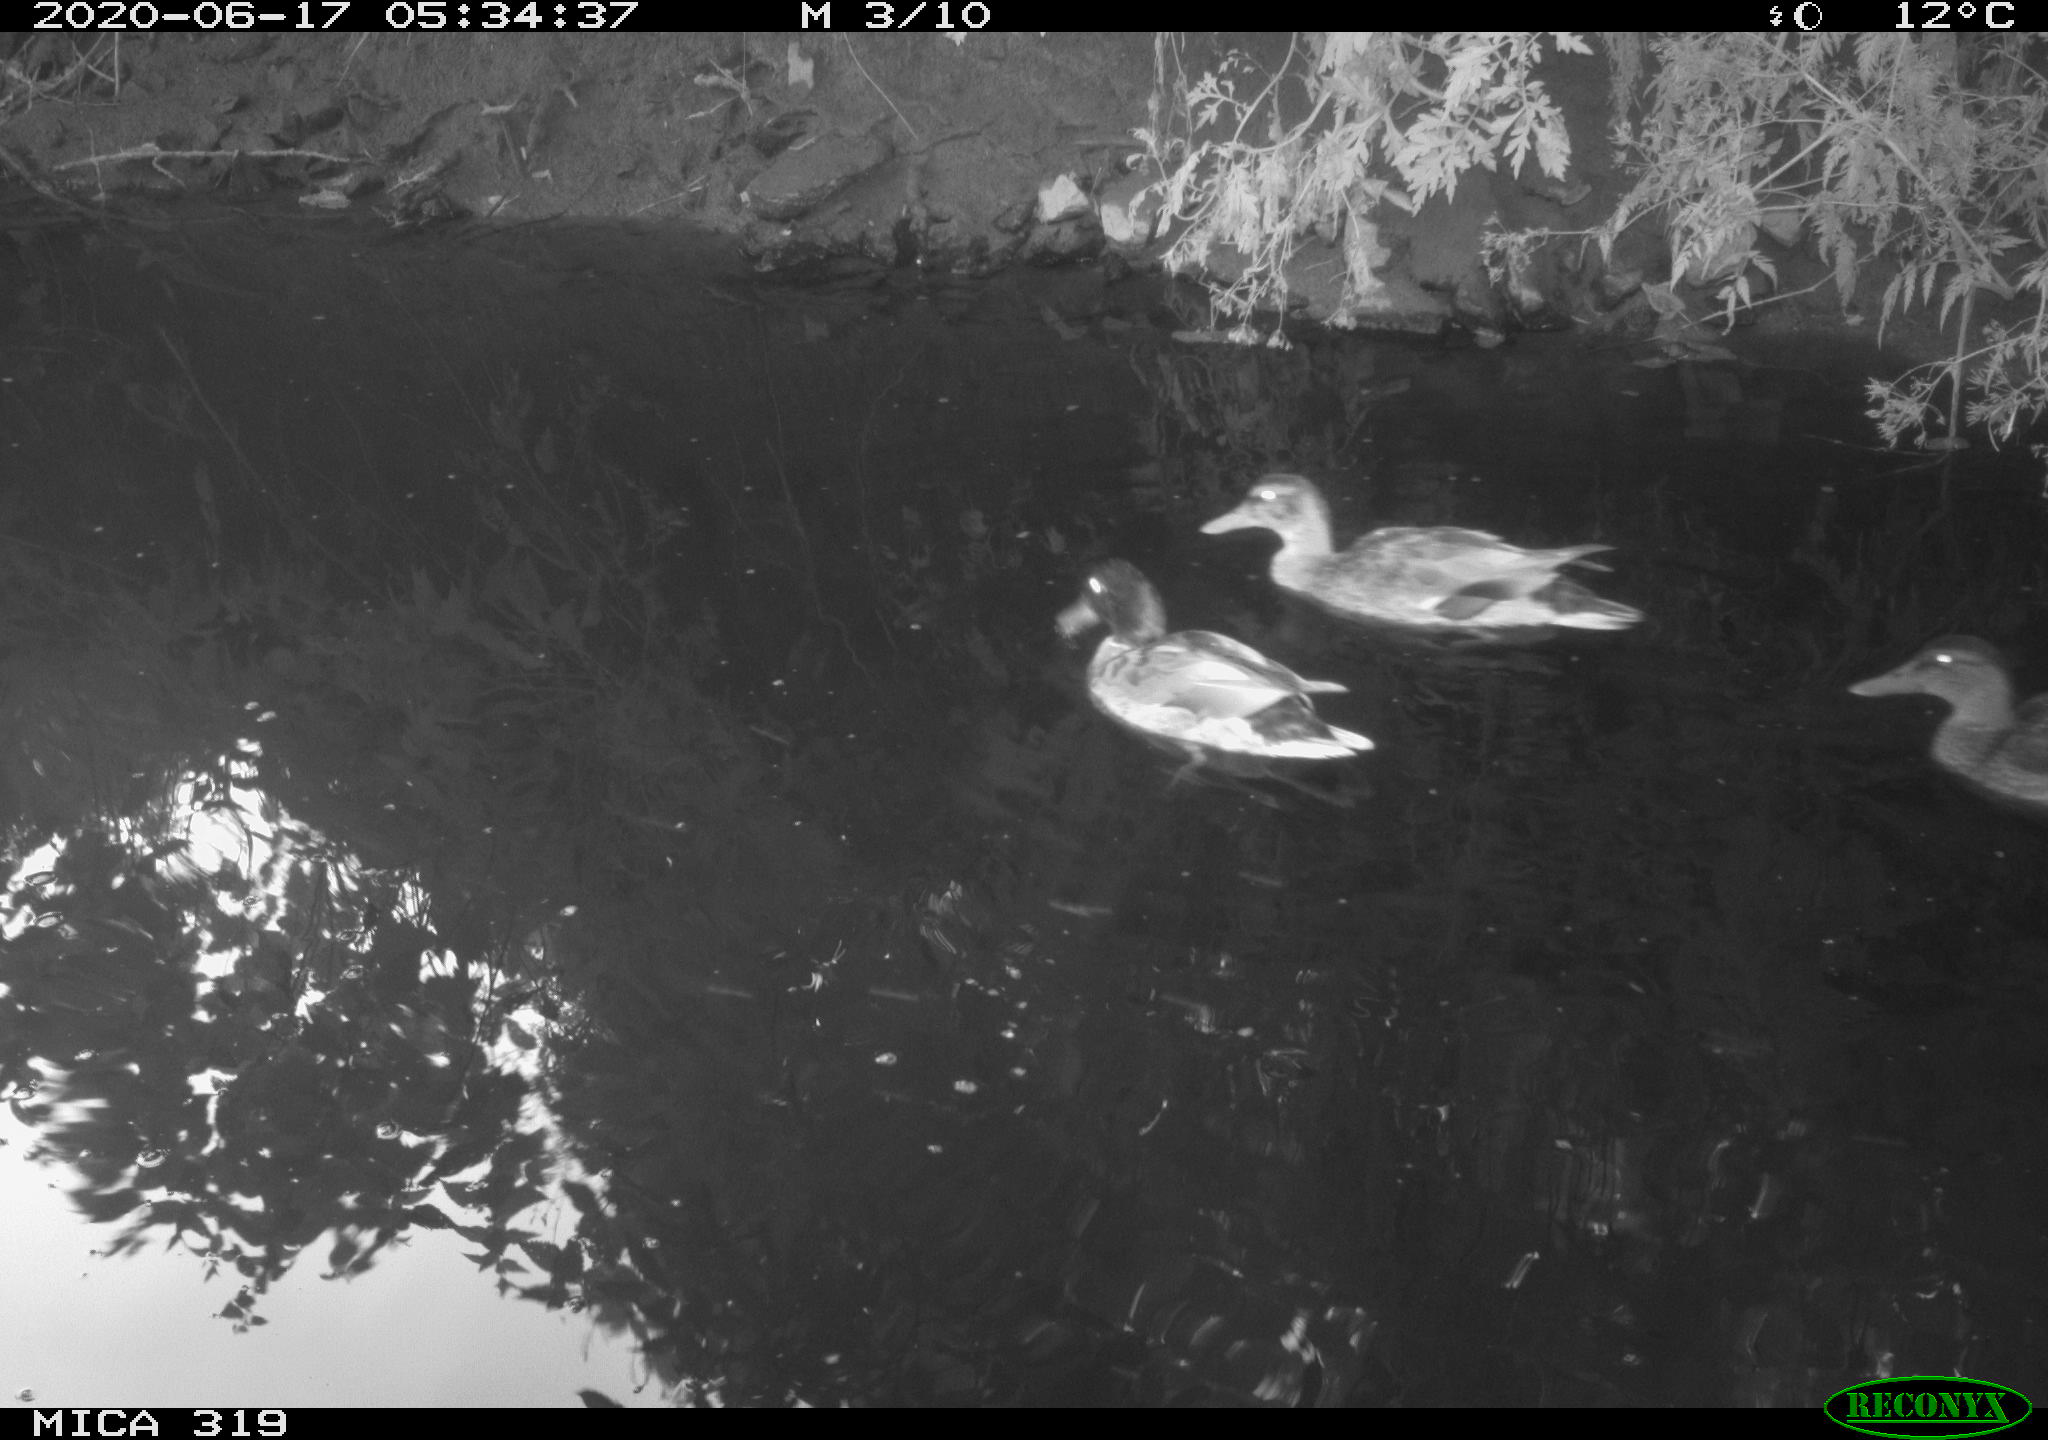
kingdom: Animalia
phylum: Chordata
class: Aves
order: Anseriformes
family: Anatidae
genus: Anas
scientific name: Anas platyrhynchos
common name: Mallard
